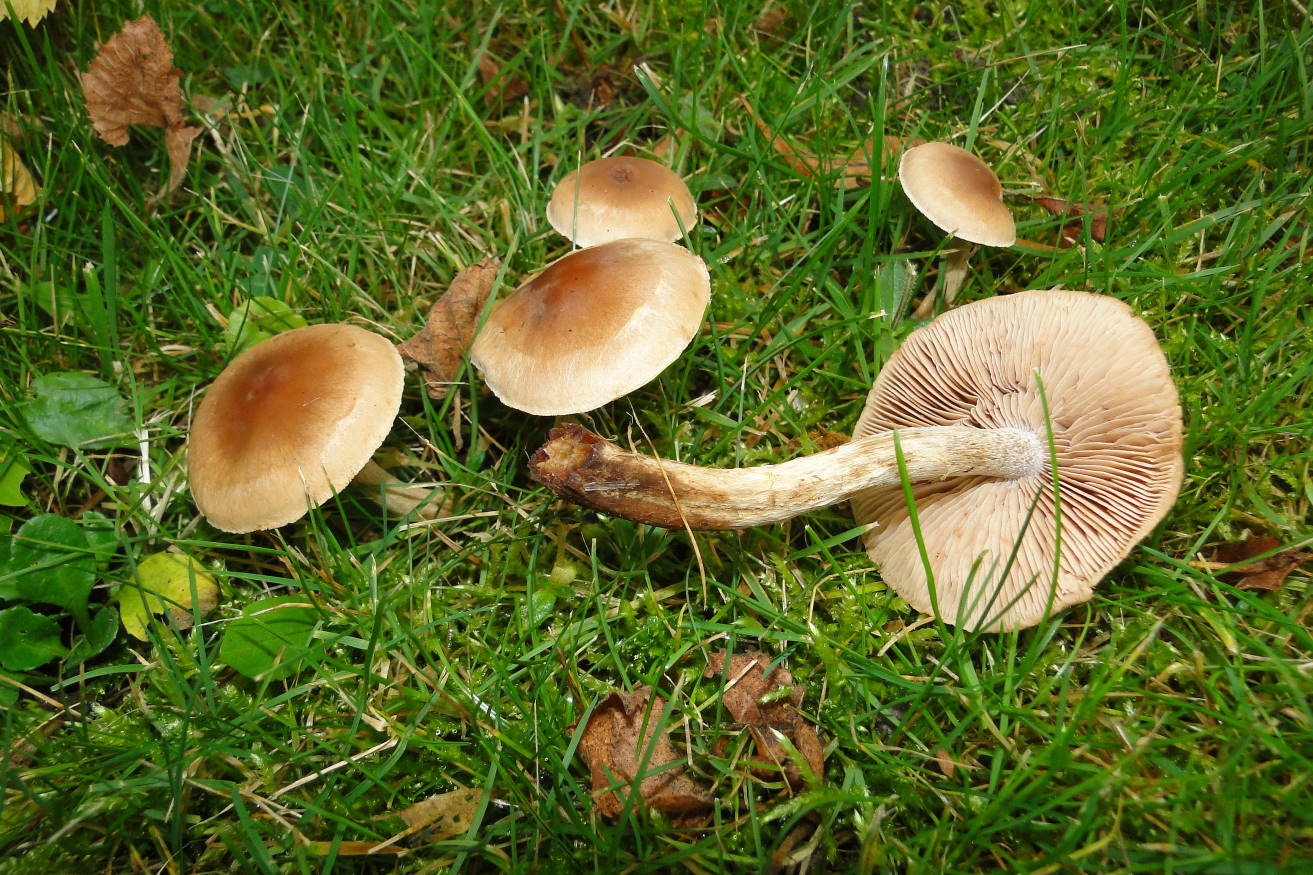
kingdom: Fungi
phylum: Basidiomycota
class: Agaricomycetes
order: Agaricales
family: Hymenogastraceae
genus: Hebeloma
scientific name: Hebeloma mesophaeum
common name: lerbrun tåreblad
